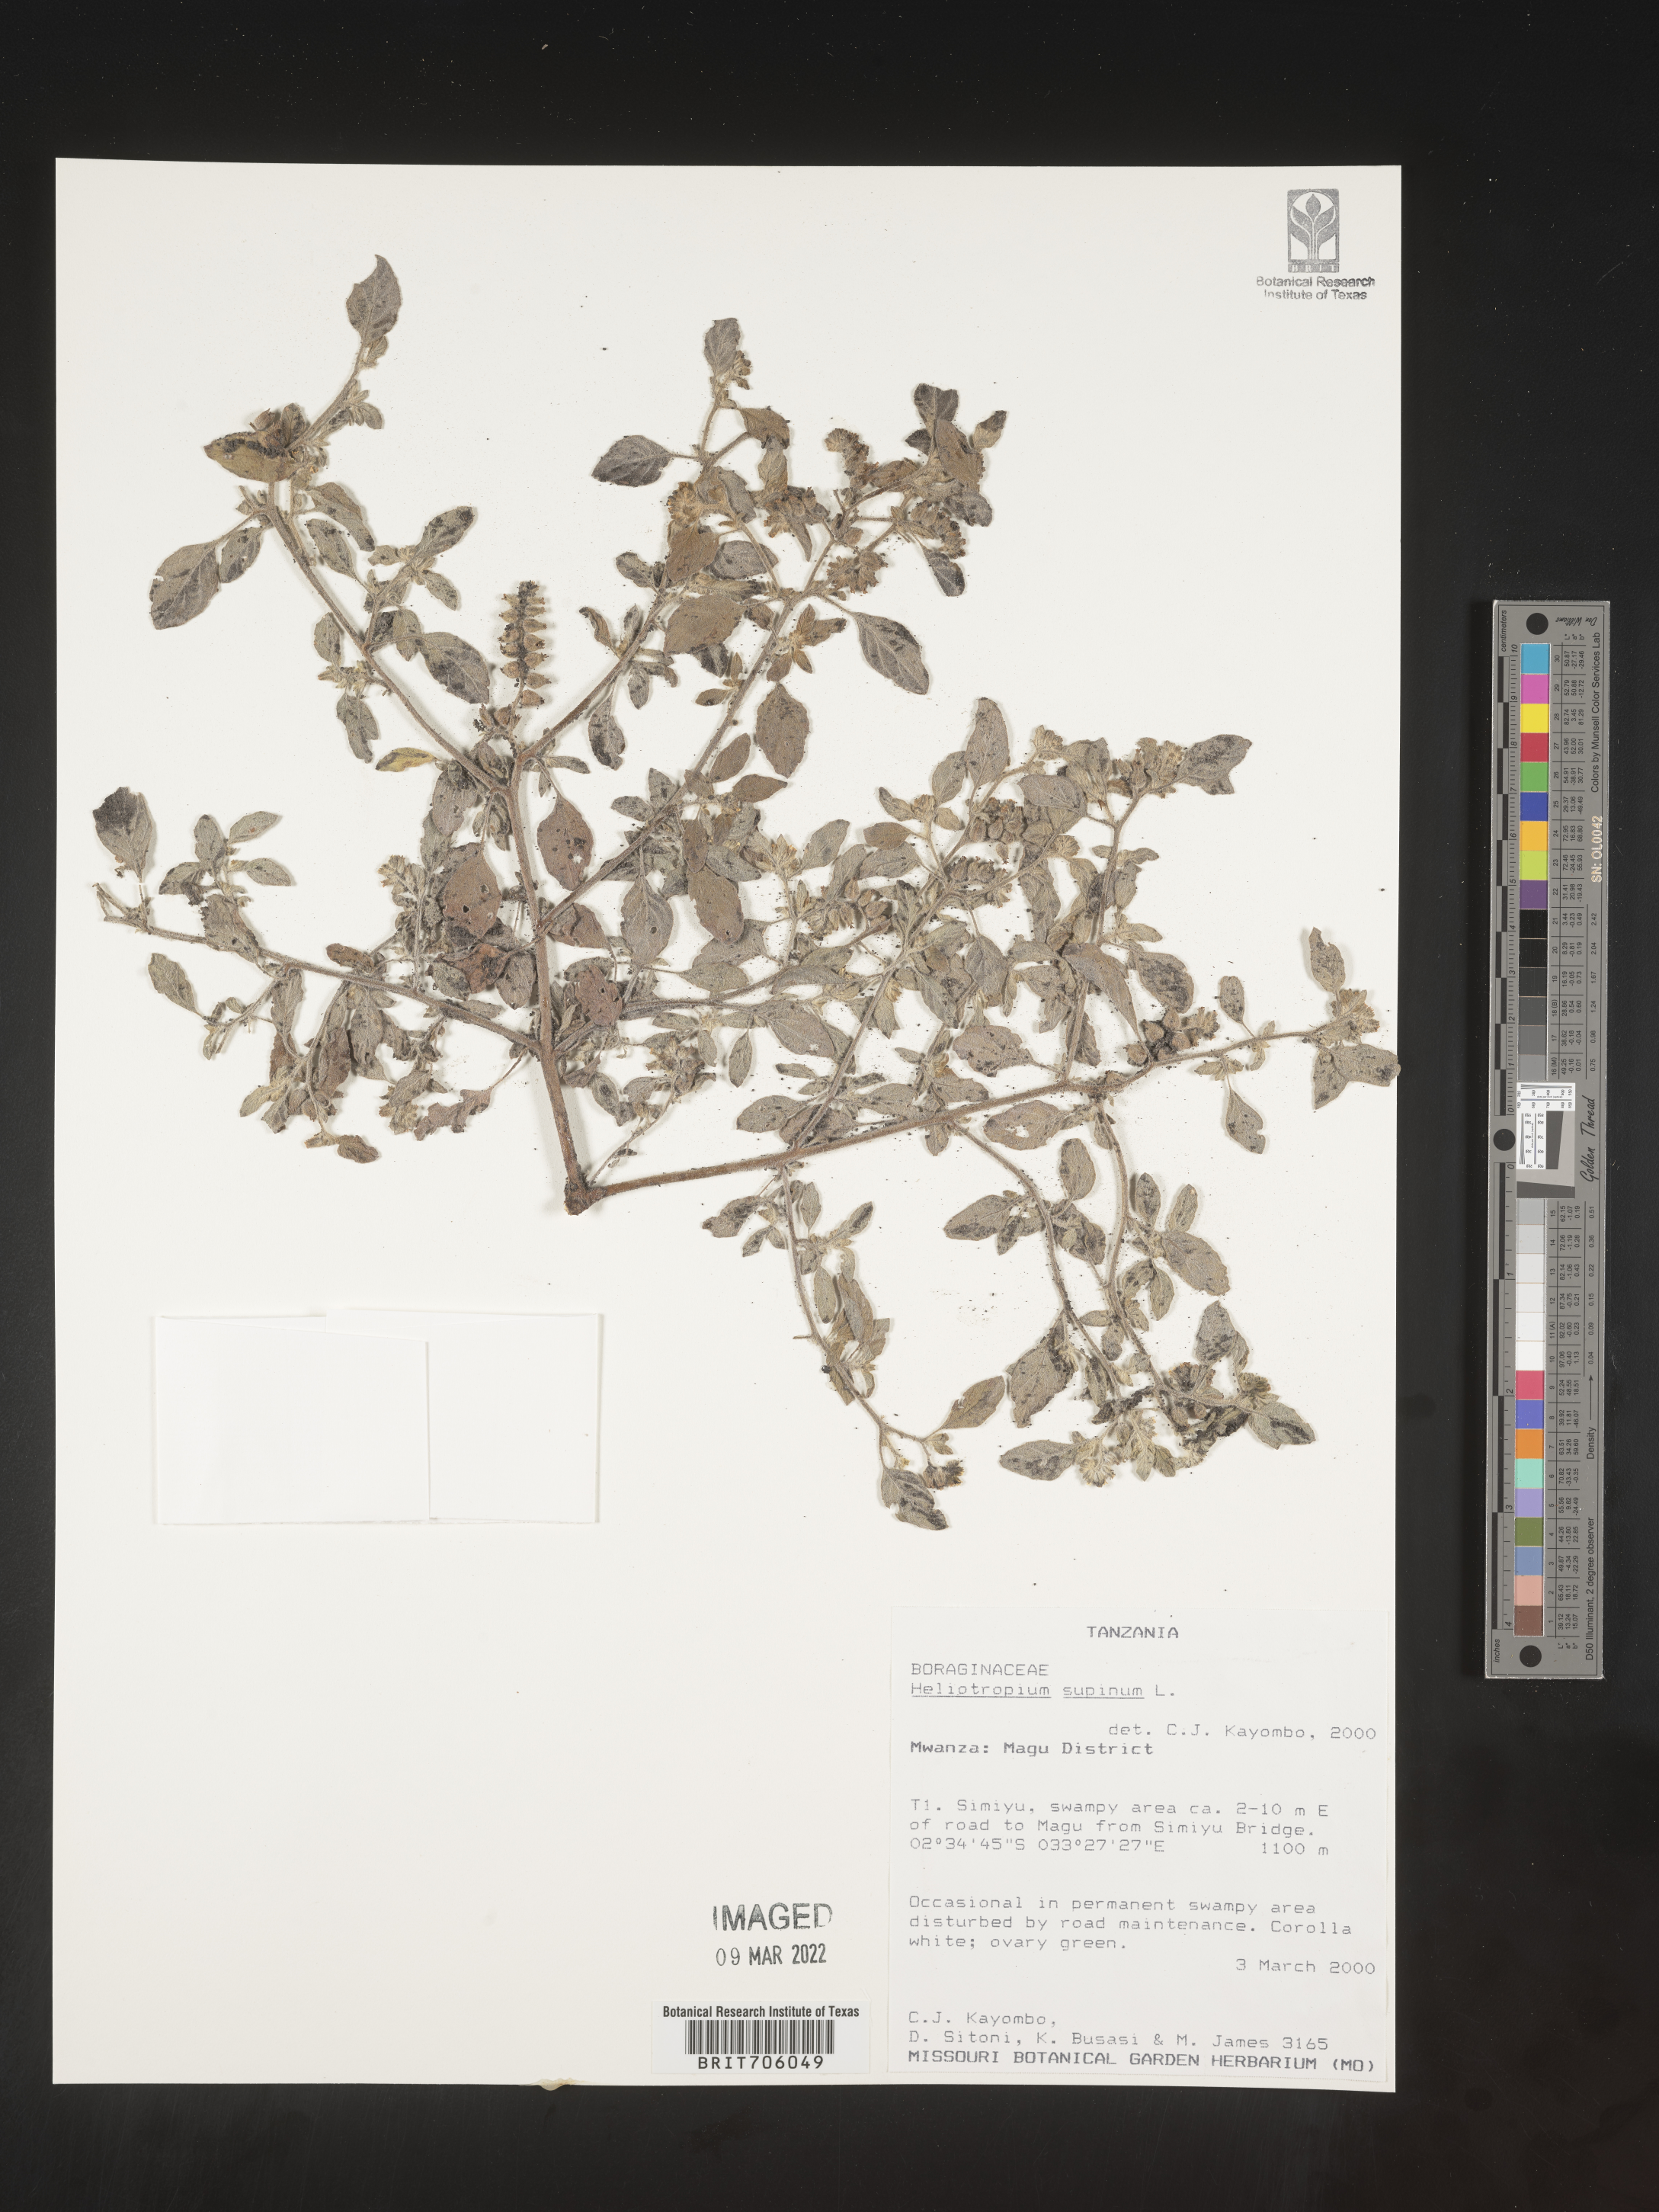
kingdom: Plantae
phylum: Tracheophyta
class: Magnoliopsida
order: Boraginales
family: Heliotropiaceae
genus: Heliotropium
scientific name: Heliotropium
